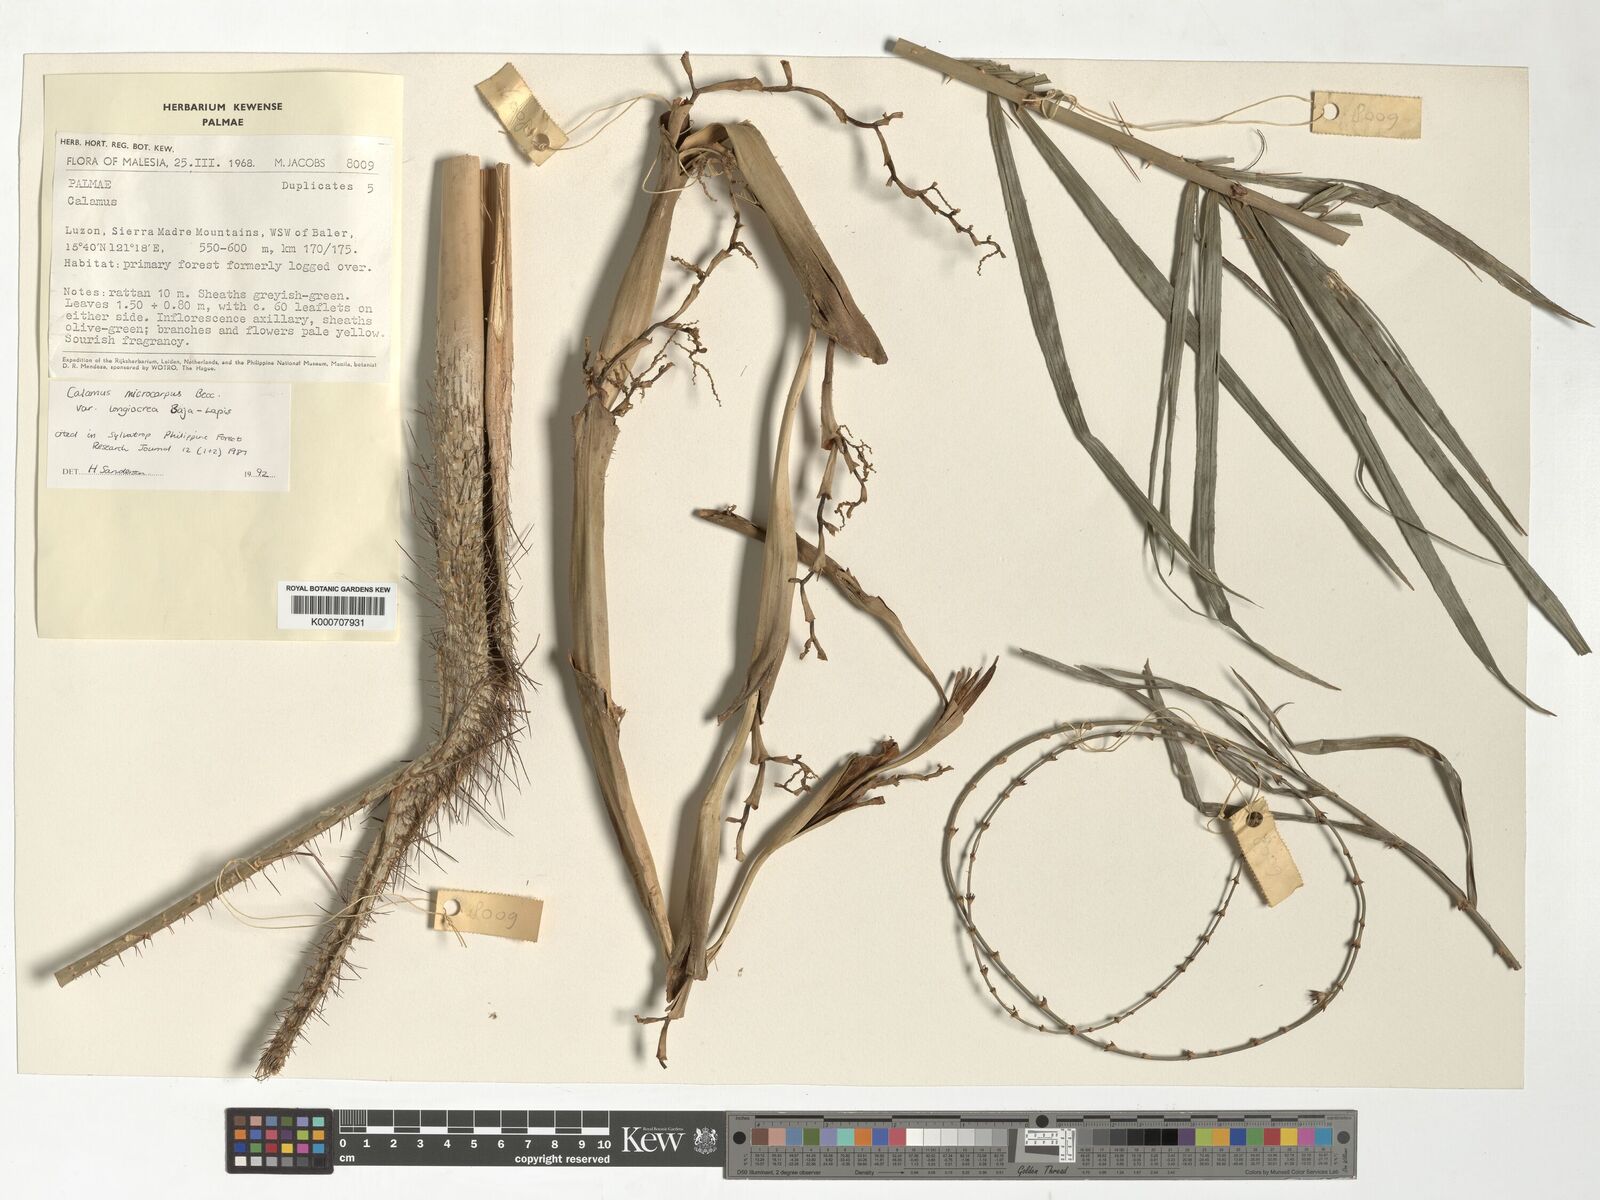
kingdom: Plantae
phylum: Tracheophyta
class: Liliopsida
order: Arecales
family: Arecaceae
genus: Calamus
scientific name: Calamus siphonospathus
